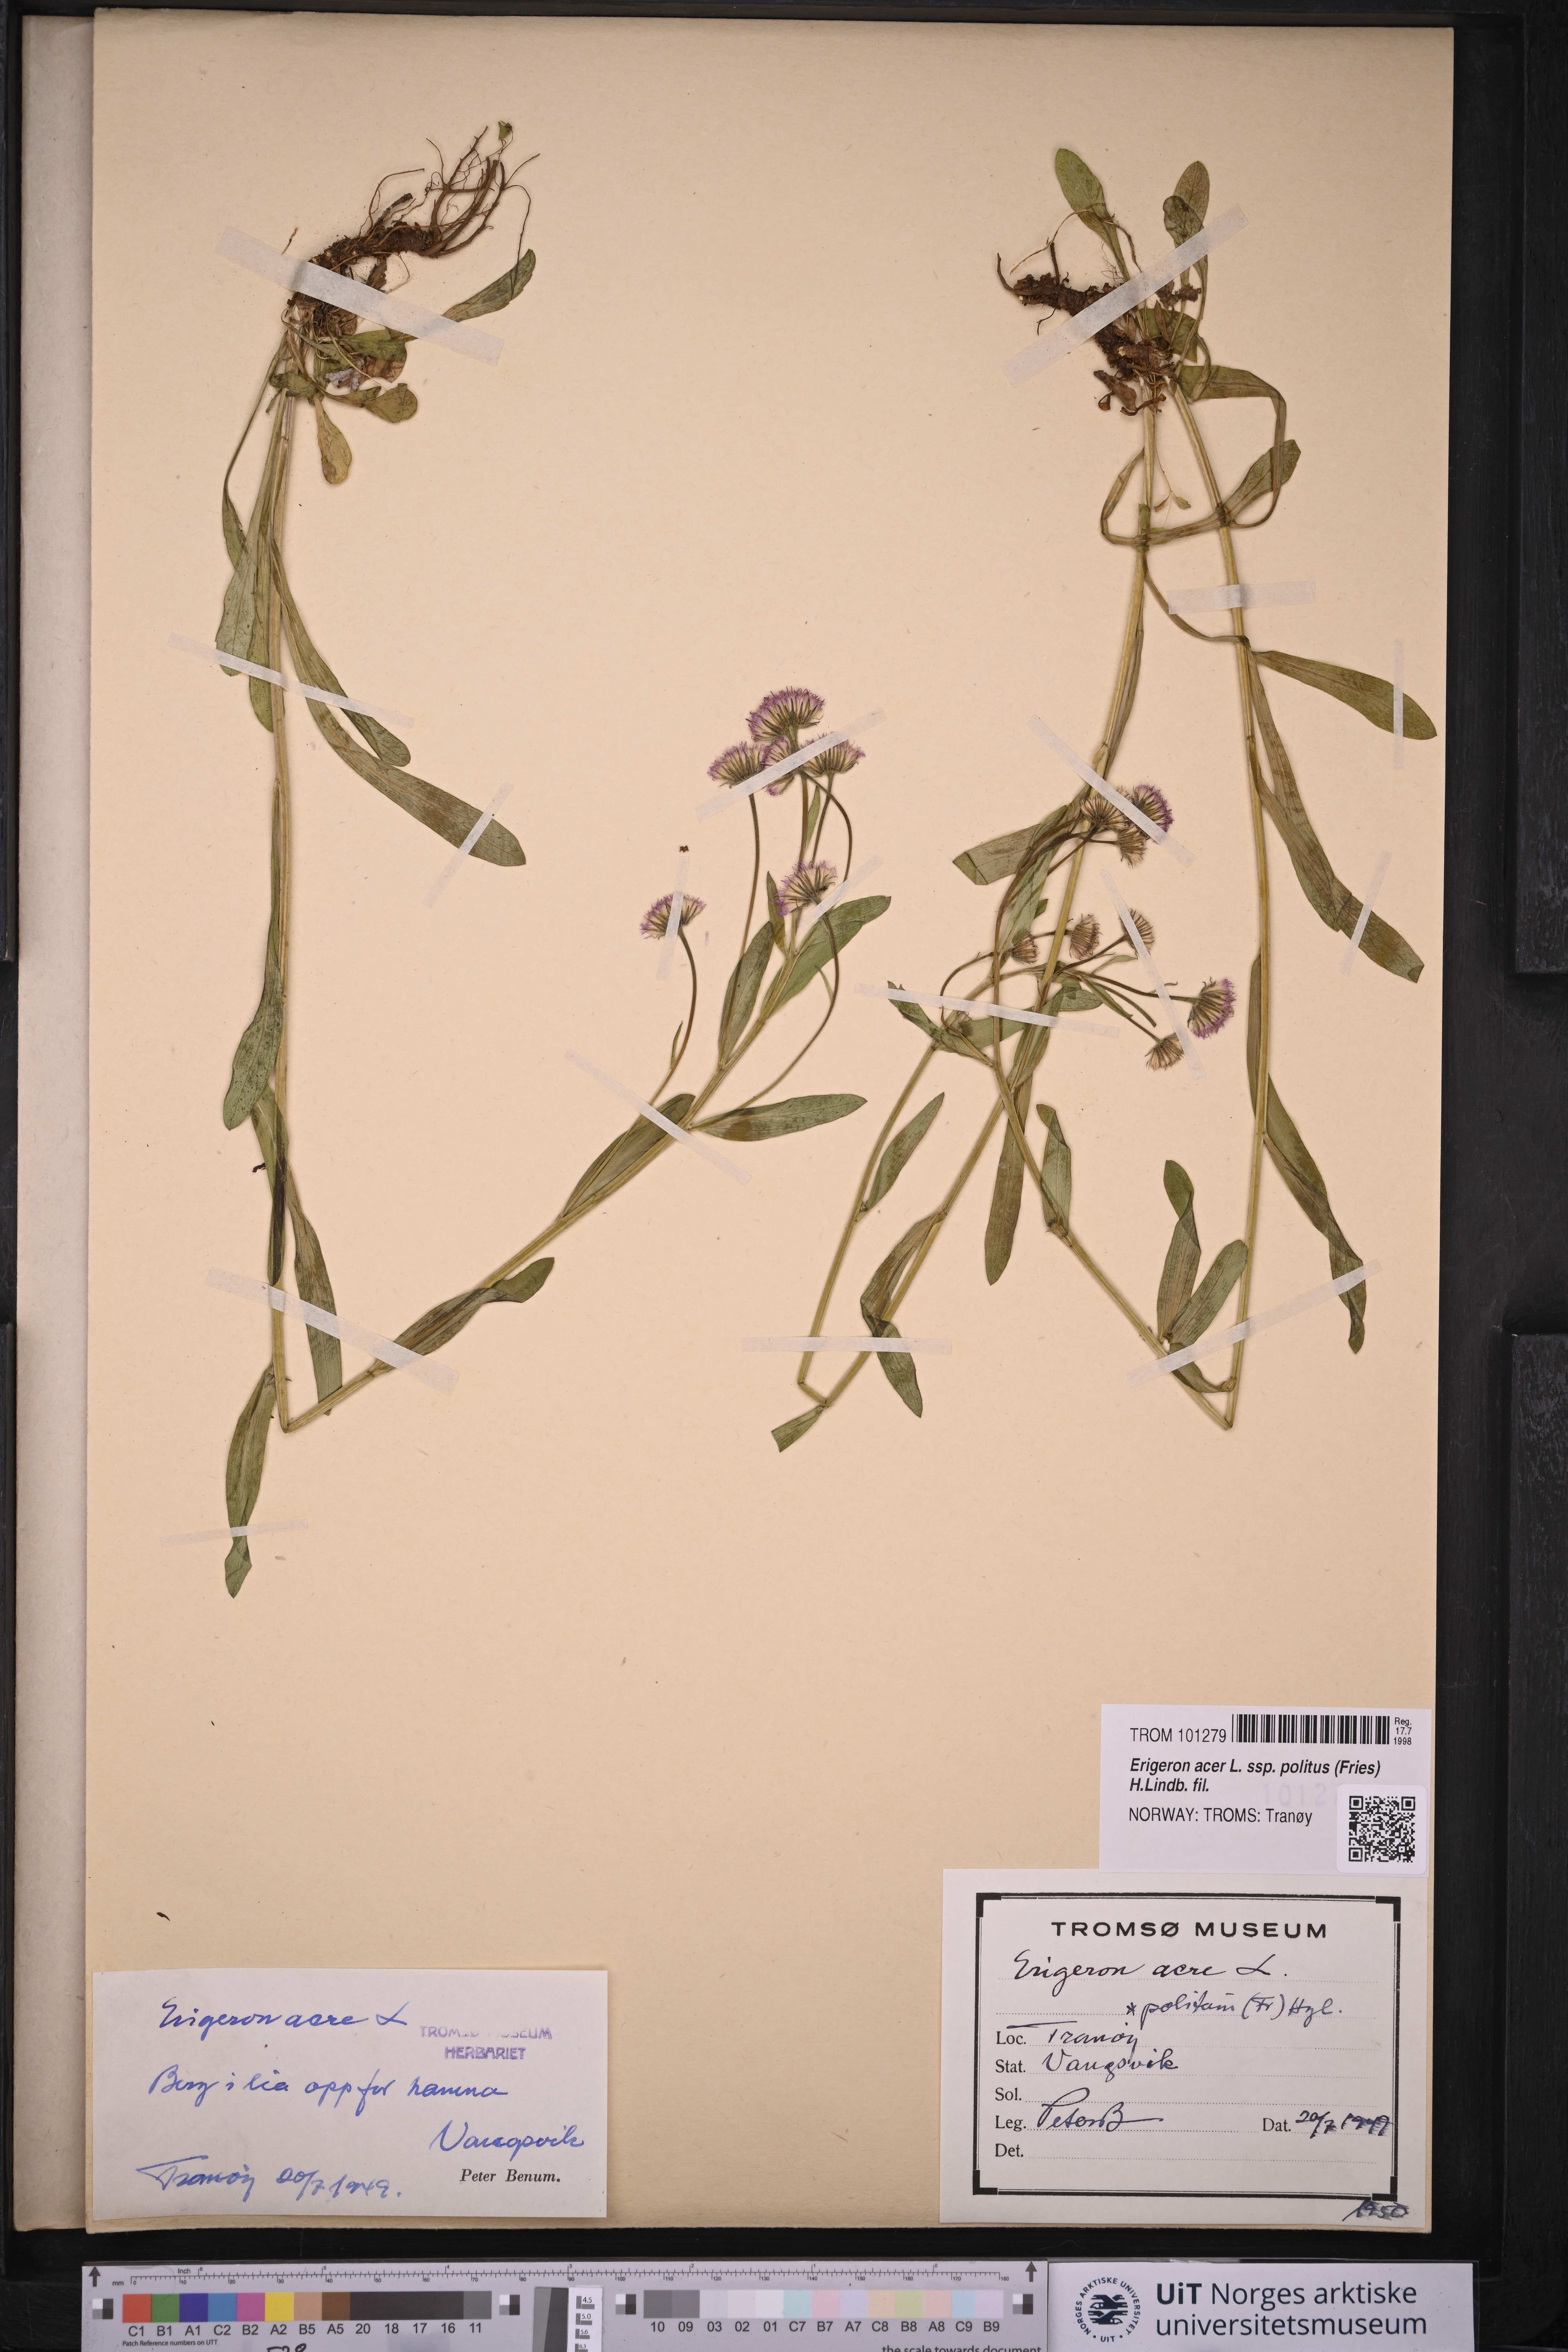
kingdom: Plantae
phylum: Tracheophyta
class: Magnoliopsida
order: Asterales
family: Asteraceae
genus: Erigeron
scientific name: Erigeron politus
